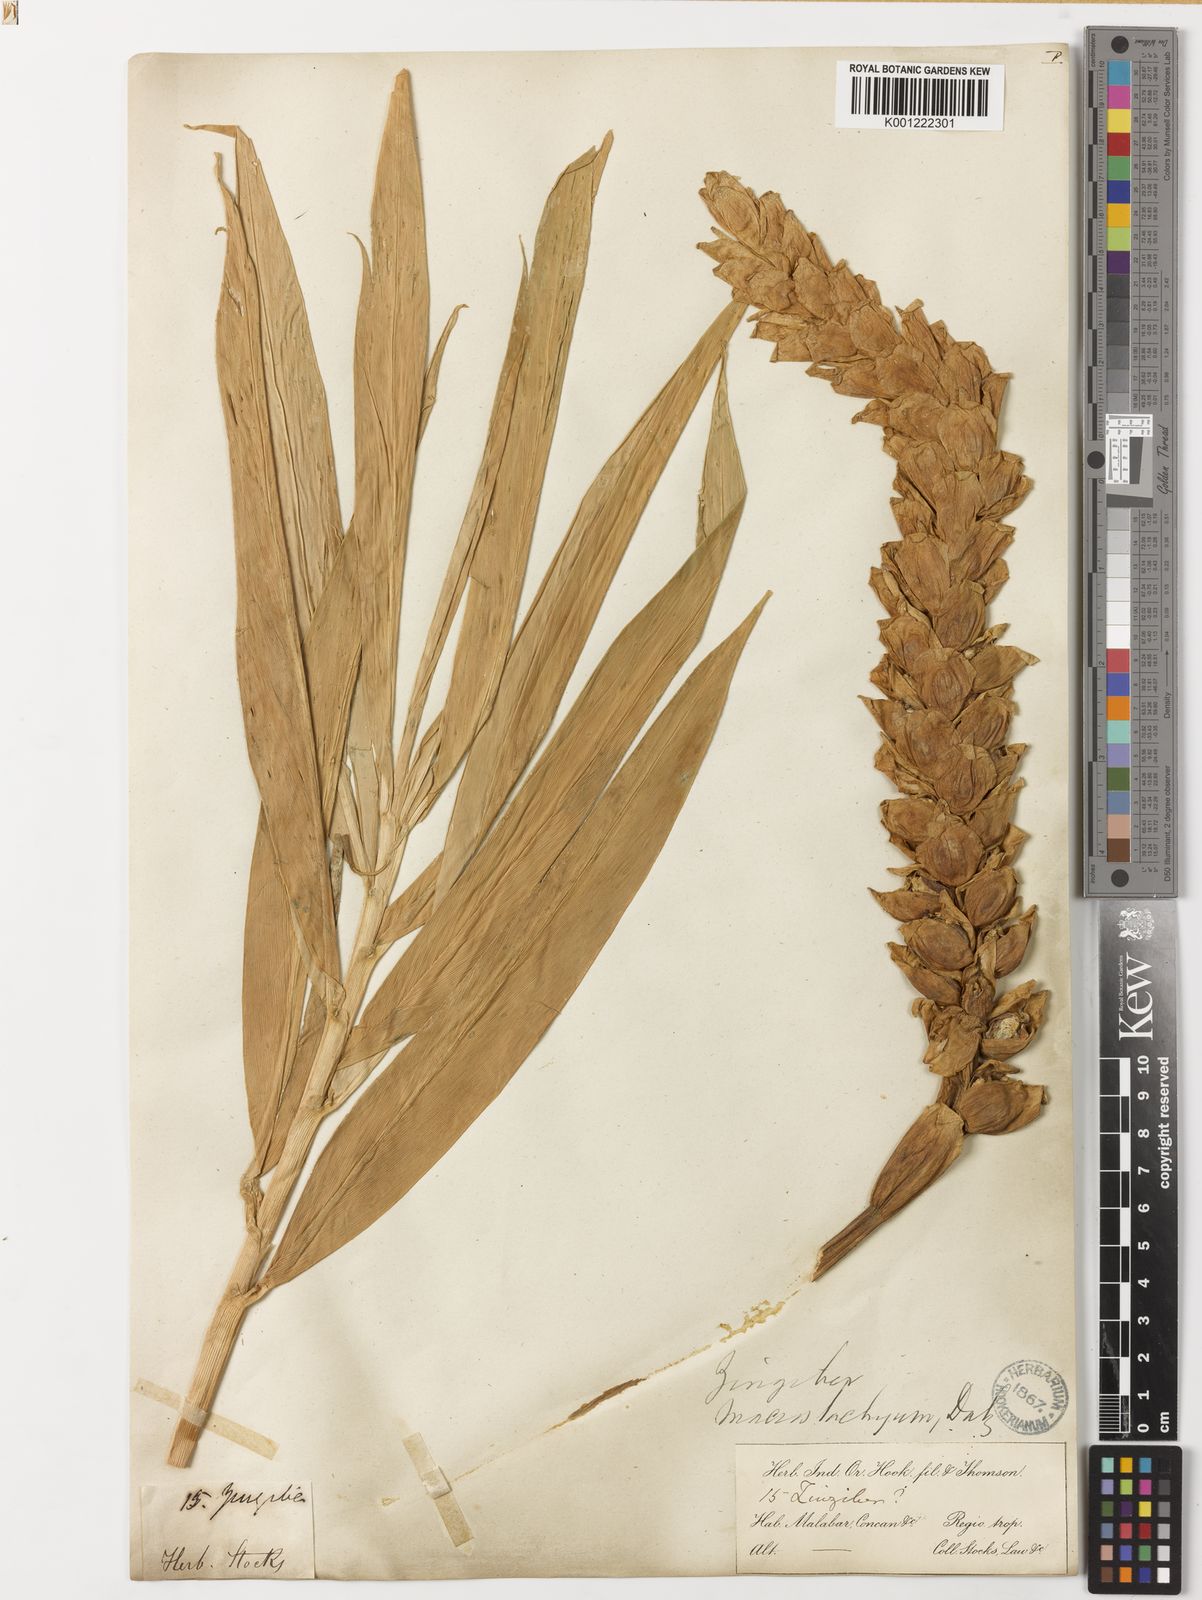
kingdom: Plantae
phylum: Tracheophyta
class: Liliopsida
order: Zingiberales
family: Zingiberaceae
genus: Zingiber
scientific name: Zingiber neesanum
